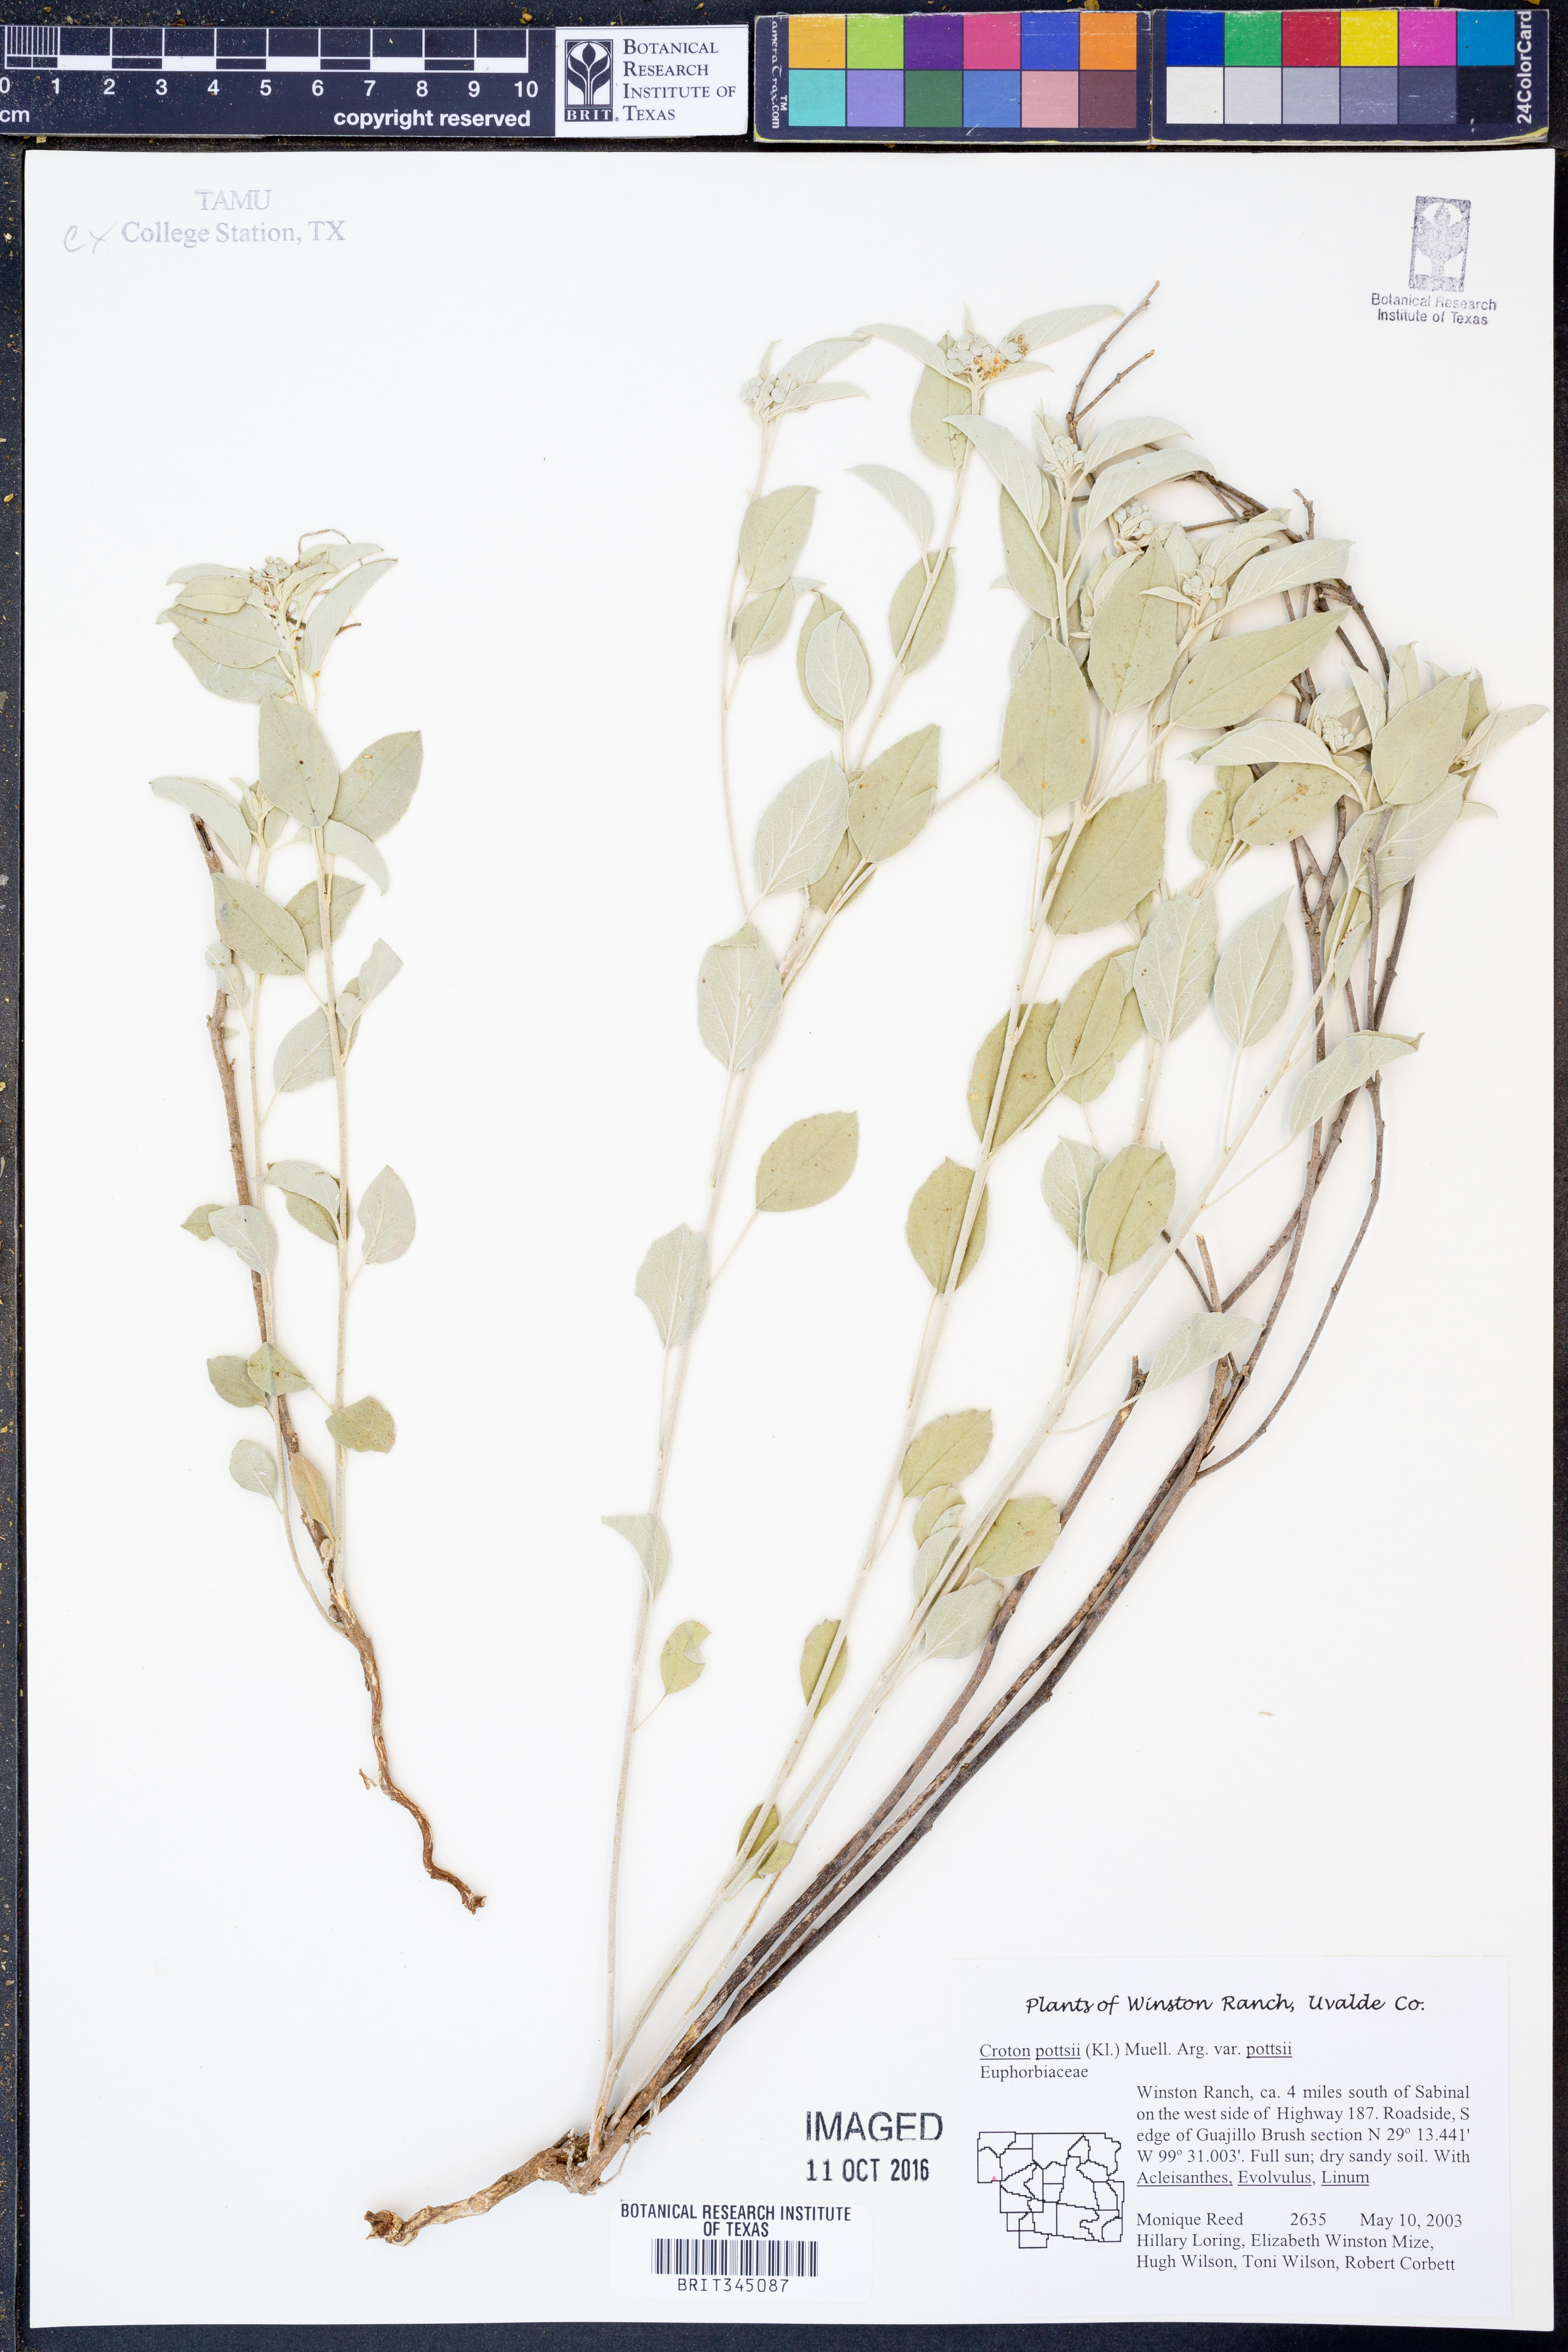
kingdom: Plantae
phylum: Tracheophyta
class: Magnoliopsida
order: Malpighiales
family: Euphorbiaceae
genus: Croton
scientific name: Croton pottsii
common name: Leatherweed
